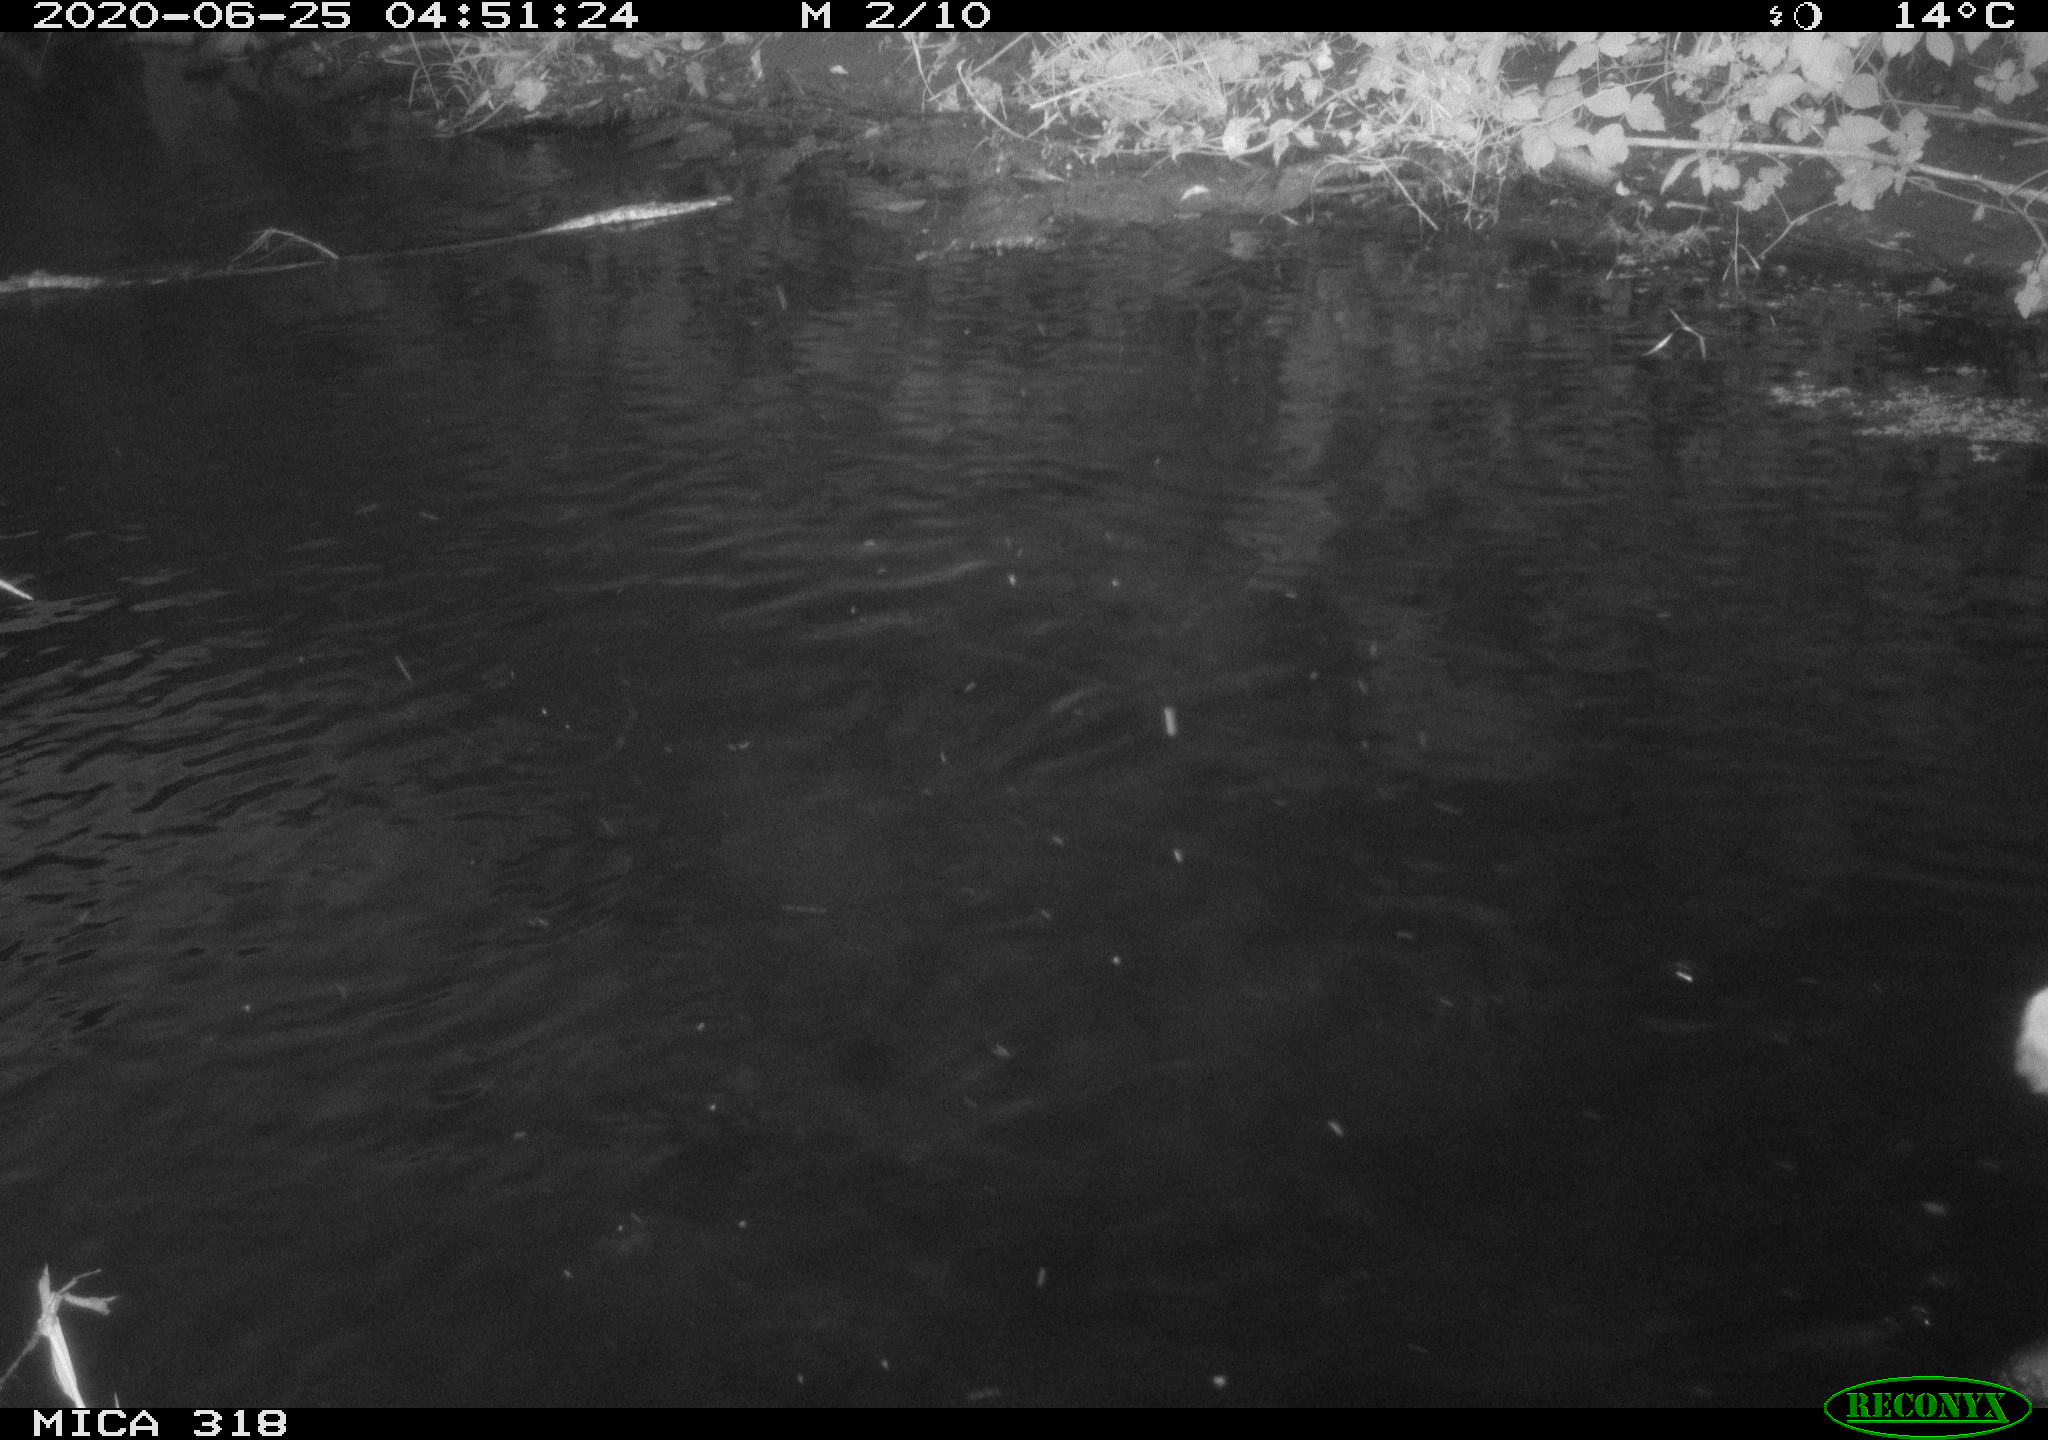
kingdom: Animalia
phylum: Chordata
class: Aves
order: Pelecaniformes
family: Ardeidae
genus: Ardea
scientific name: Ardea cinerea
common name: Grey heron
